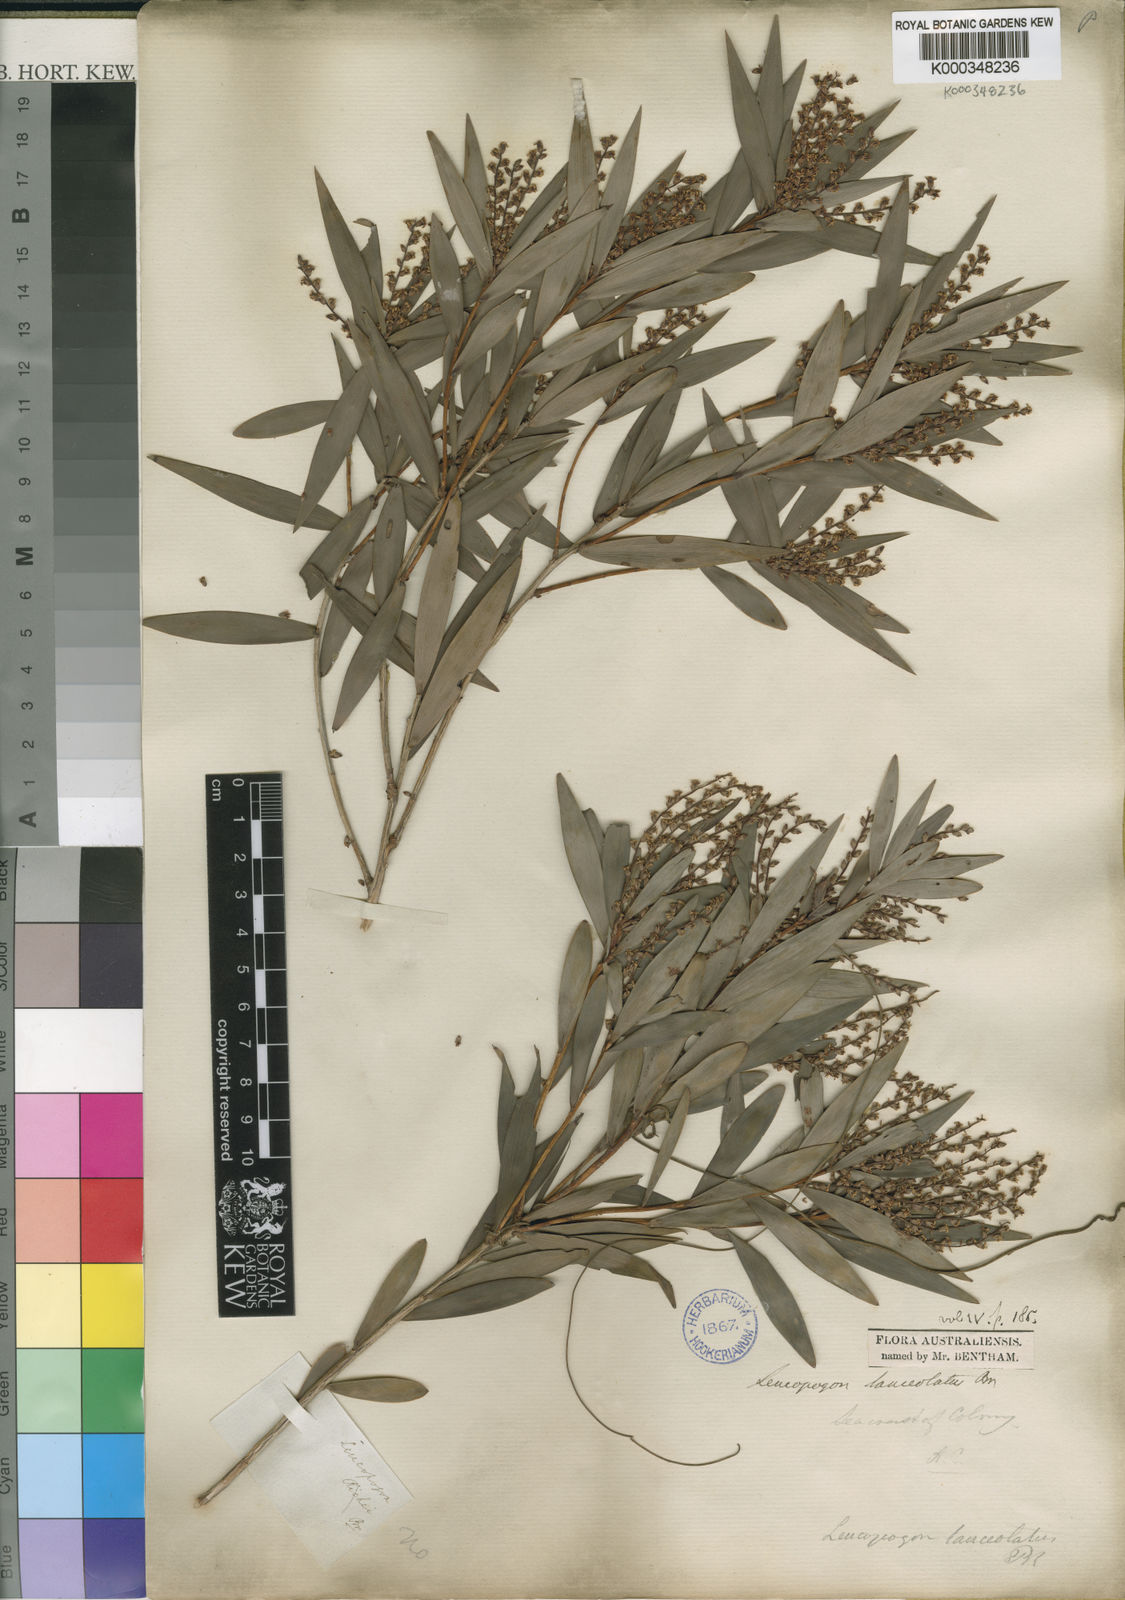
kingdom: Plantae
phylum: Tracheophyta
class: Magnoliopsida
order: Ericales
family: Ericaceae
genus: Leucopogon
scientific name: Leucopogon lanceolatus
